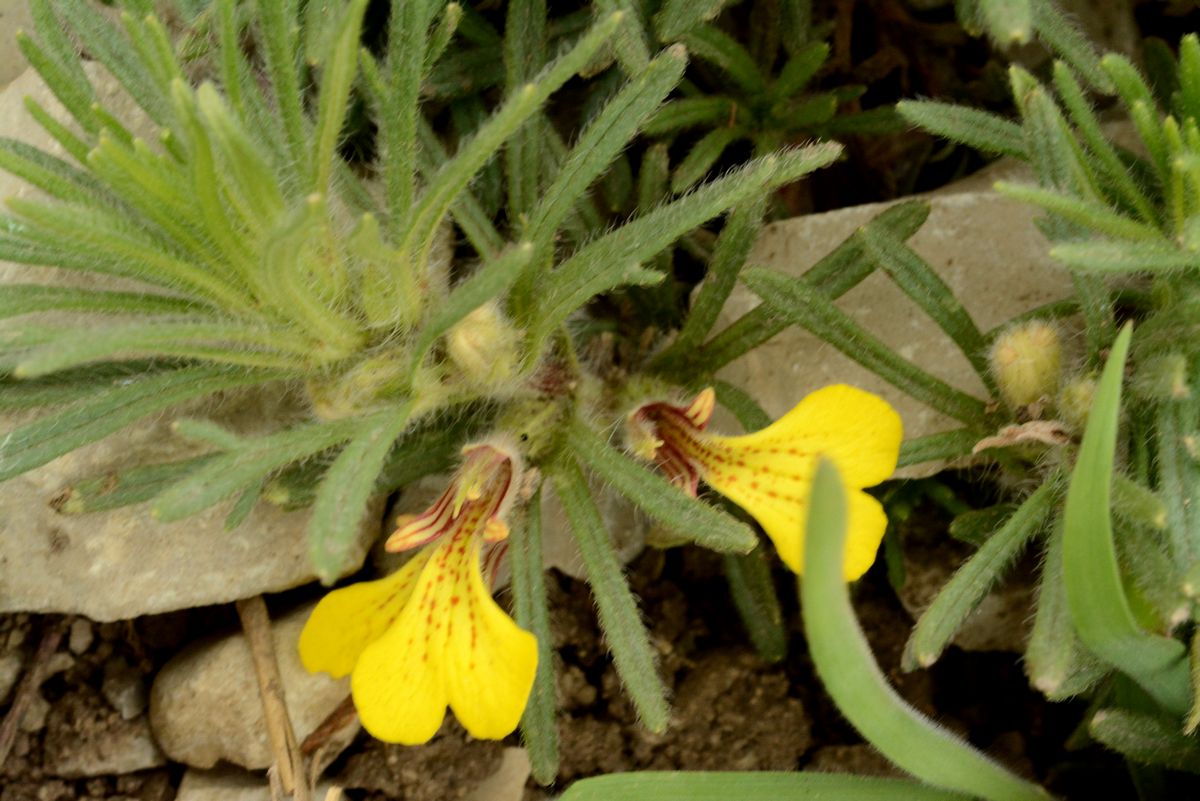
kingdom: Plantae
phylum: Tracheophyta
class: Magnoliopsida
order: Lamiales
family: Lamiaceae
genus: Ajuga
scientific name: Ajuga chamaepitys
